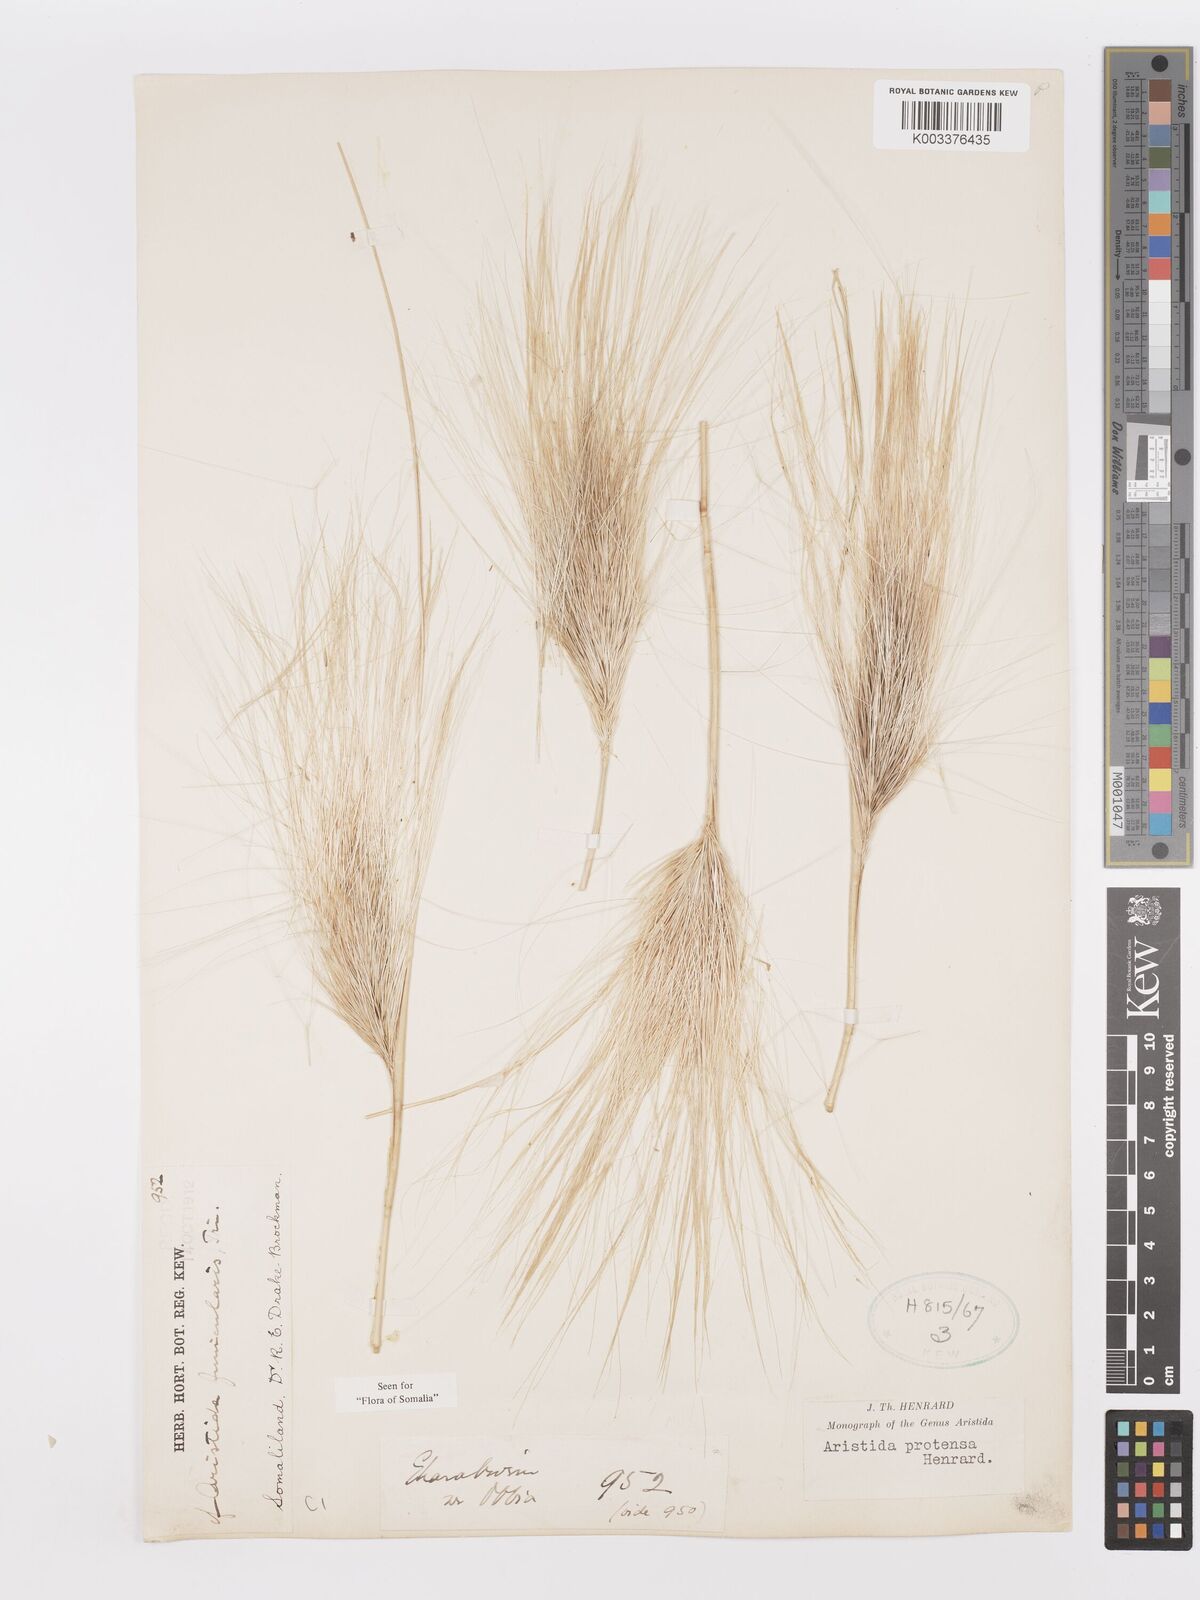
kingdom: Plantae
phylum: Tracheophyta
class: Liliopsida
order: Poales
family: Poaceae
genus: Aristida
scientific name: Aristida protensa
